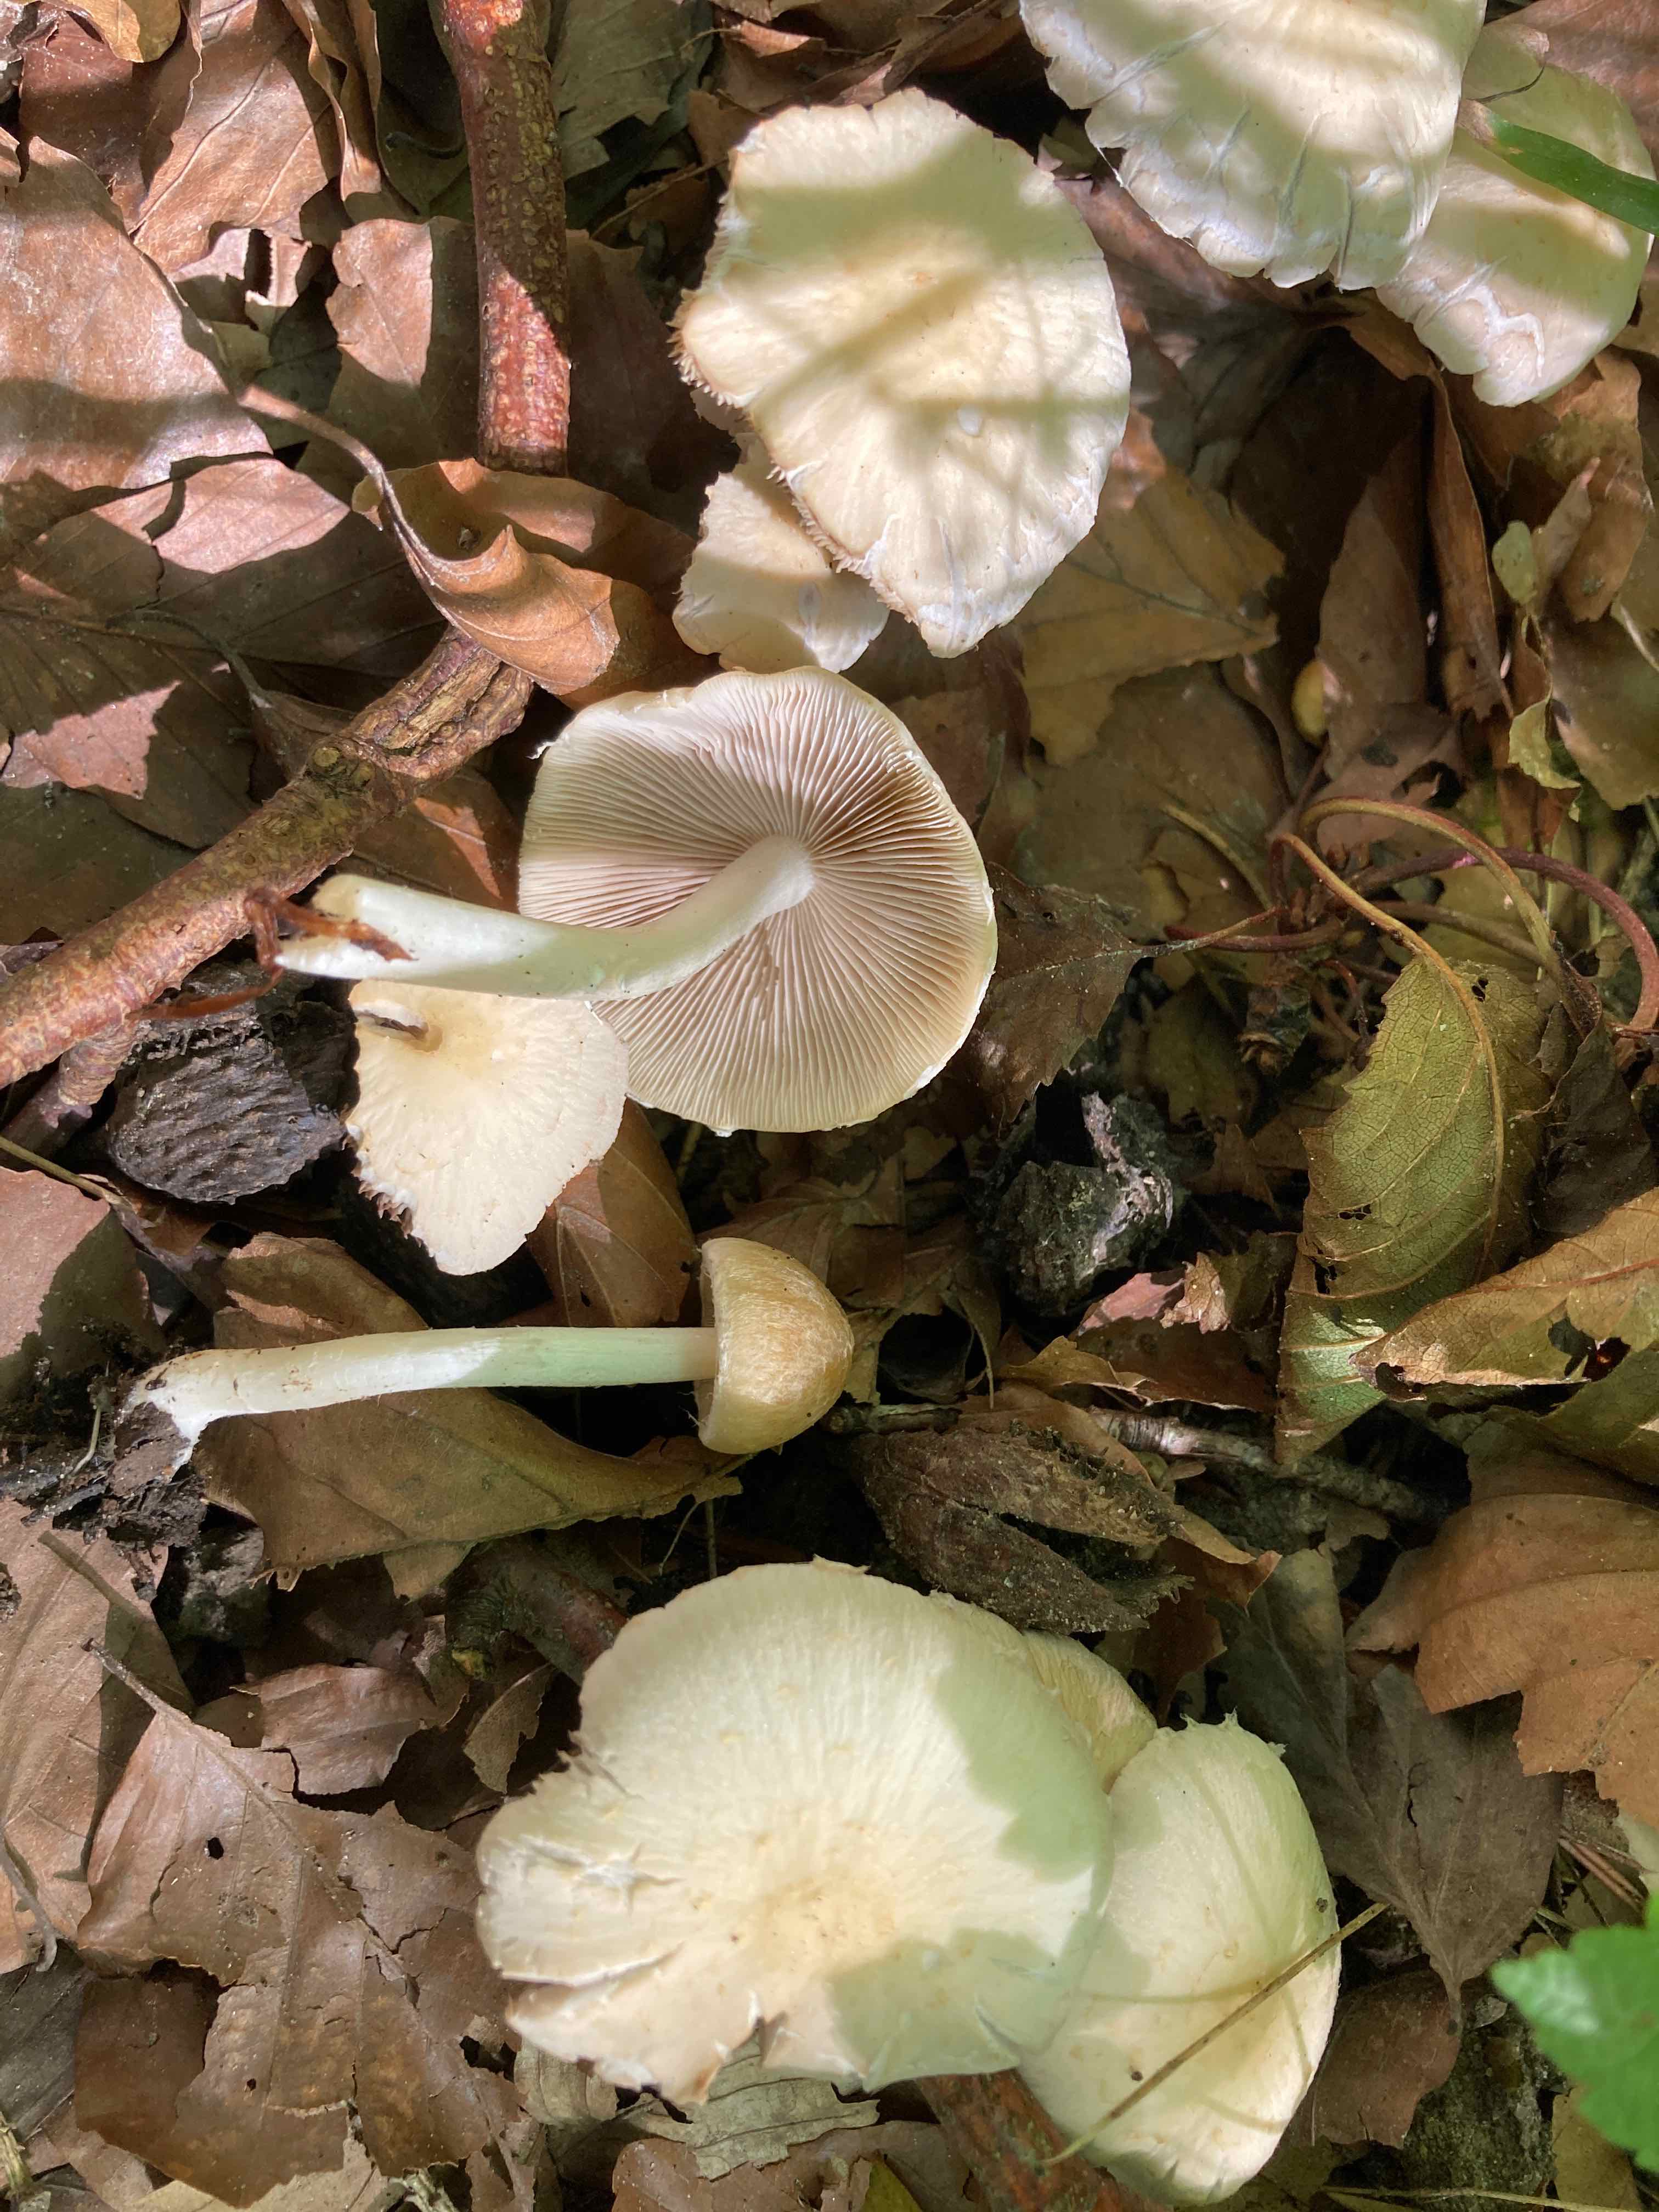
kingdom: Fungi
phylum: Basidiomycota
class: Agaricomycetes
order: Agaricales
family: Psathyrellaceae
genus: Candolleomyces
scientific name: Candolleomyces candolleanus
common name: Candolles mørkhat
